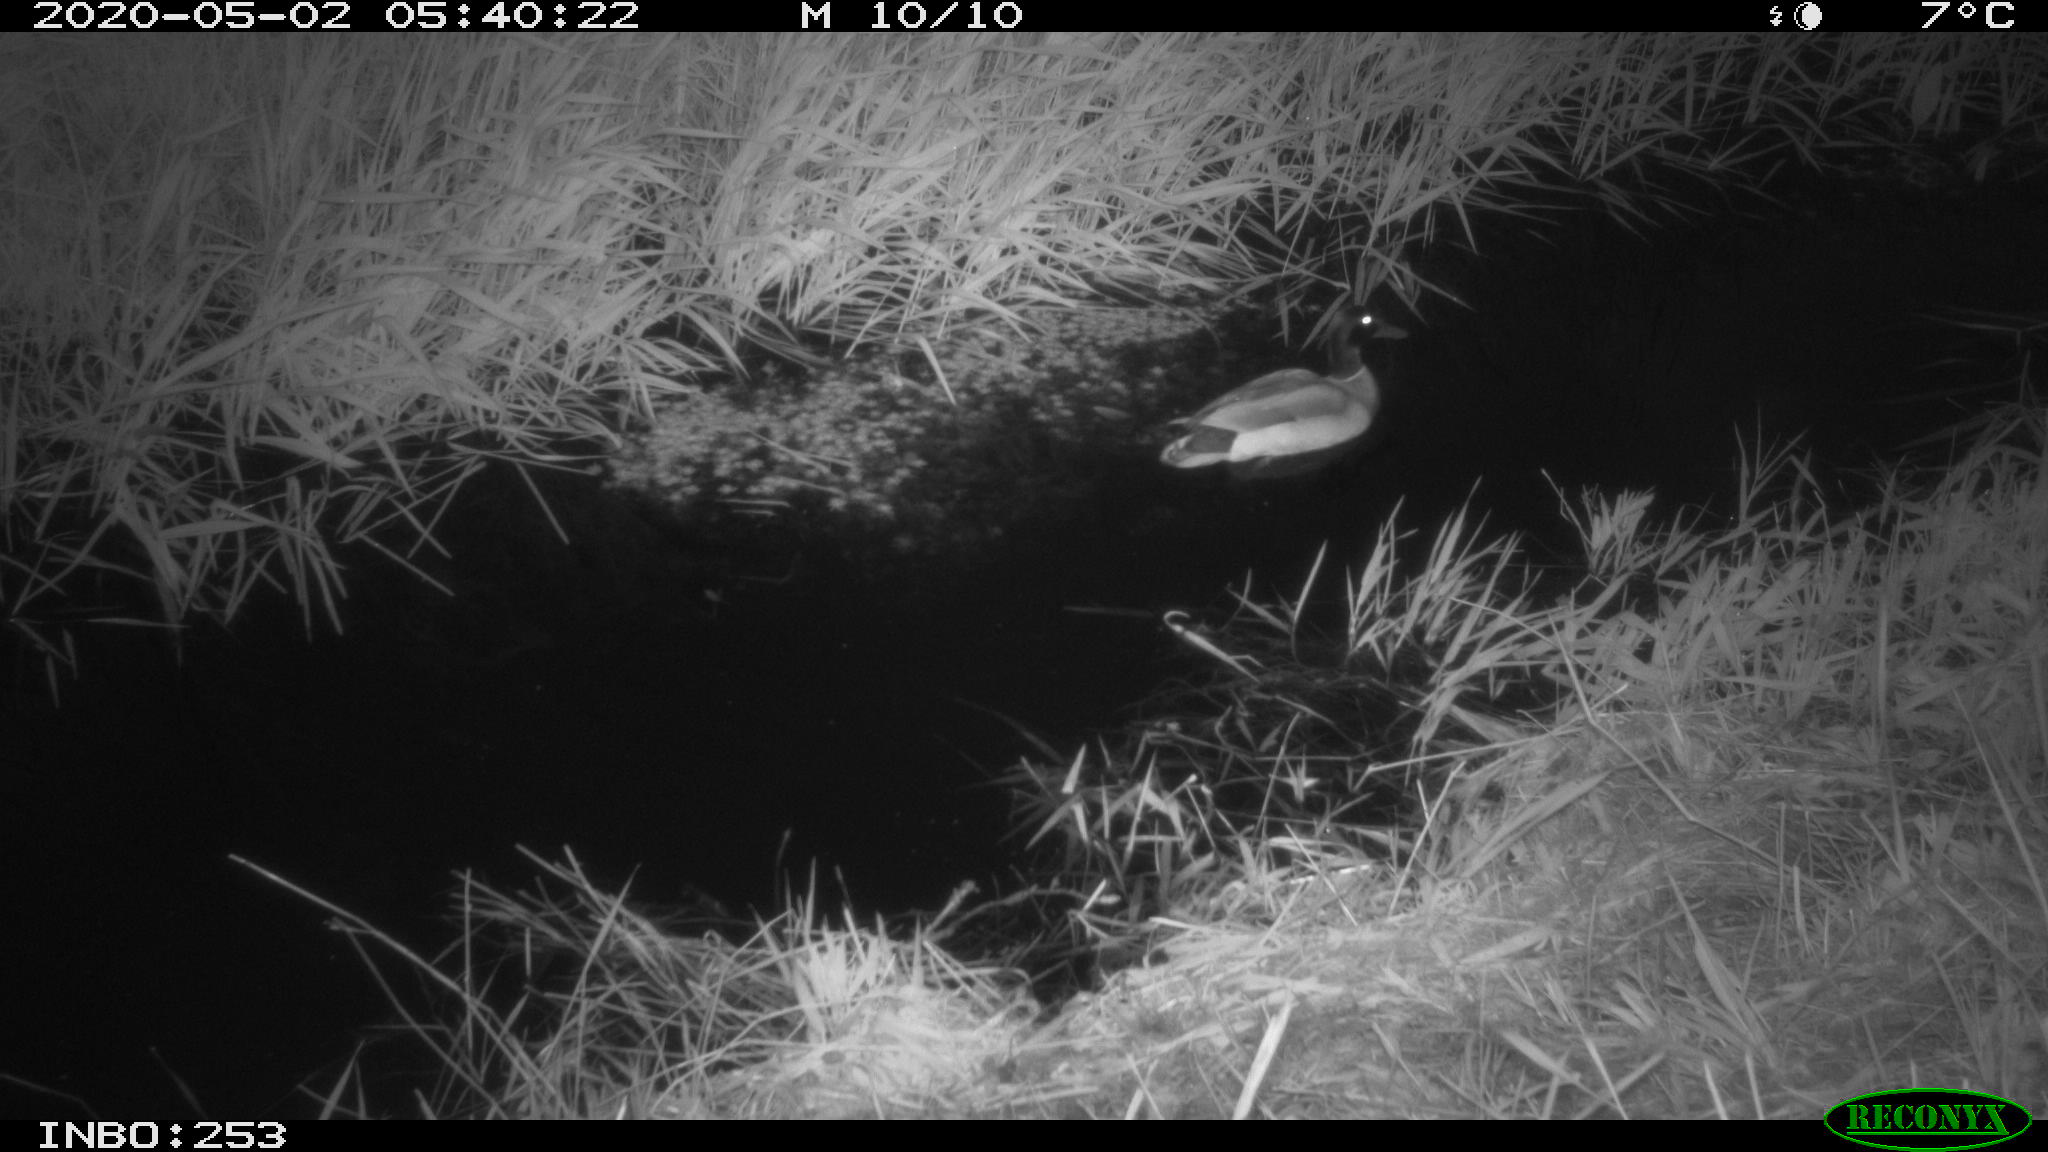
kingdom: Animalia
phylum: Chordata
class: Aves
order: Anseriformes
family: Anatidae
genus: Anas
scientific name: Anas platyrhynchos
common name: Mallard
